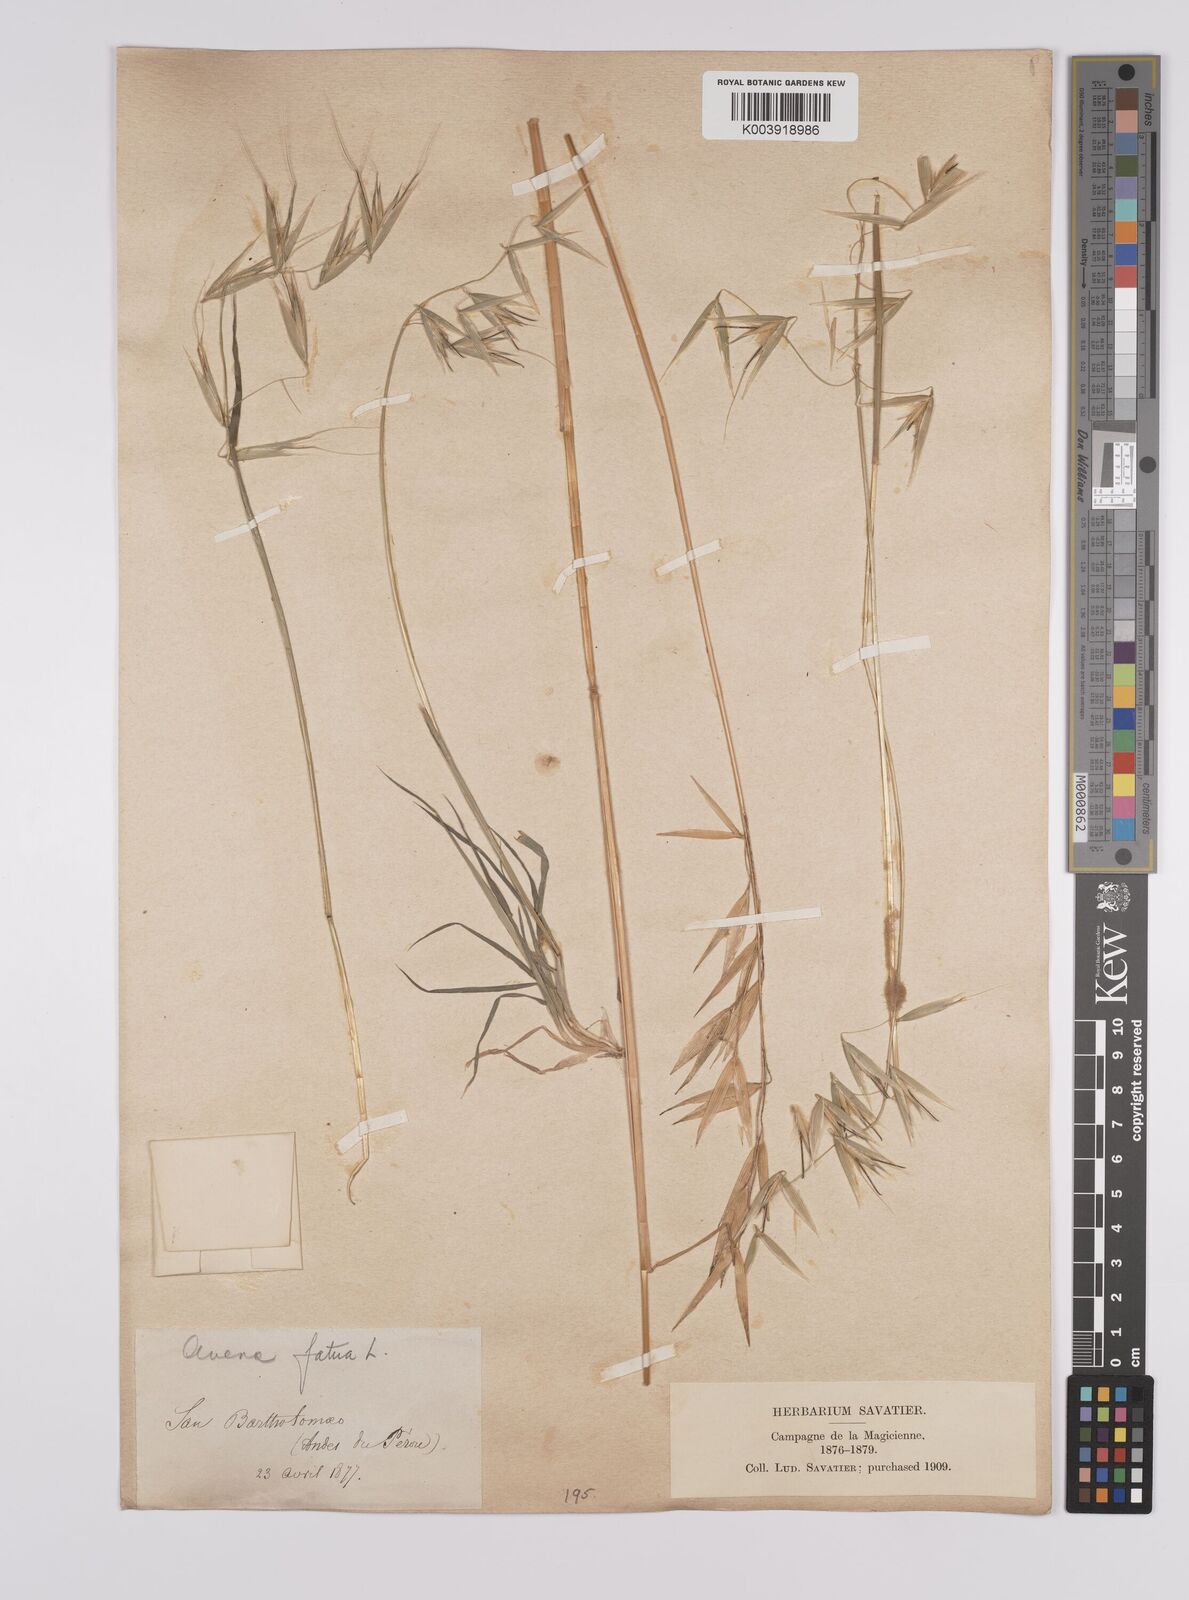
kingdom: Plantae
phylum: Tracheophyta
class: Liliopsida
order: Poales
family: Poaceae
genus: Avena
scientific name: Avena fatua
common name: Wild oat
